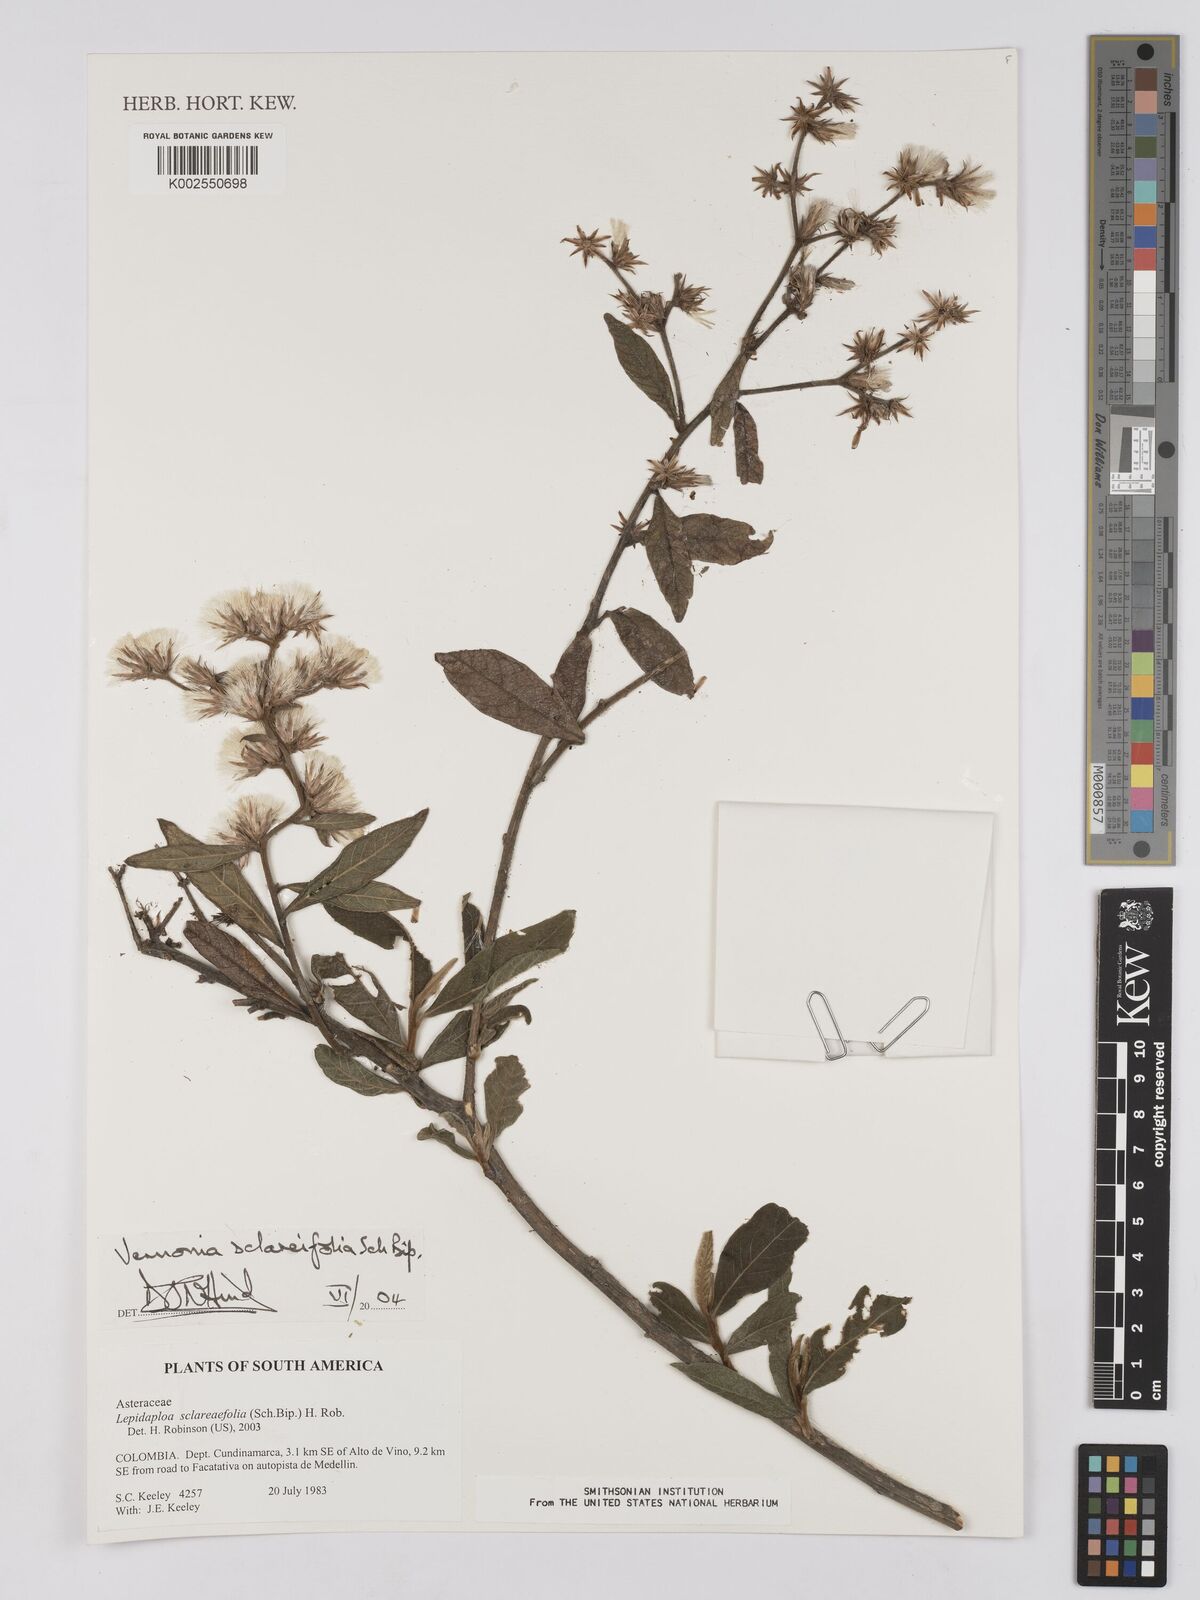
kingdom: Plantae
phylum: Tracheophyta
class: Magnoliopsida
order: Asterales
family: Asteraceae
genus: Lepidaploa
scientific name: Lepidaploa sclareifolia
